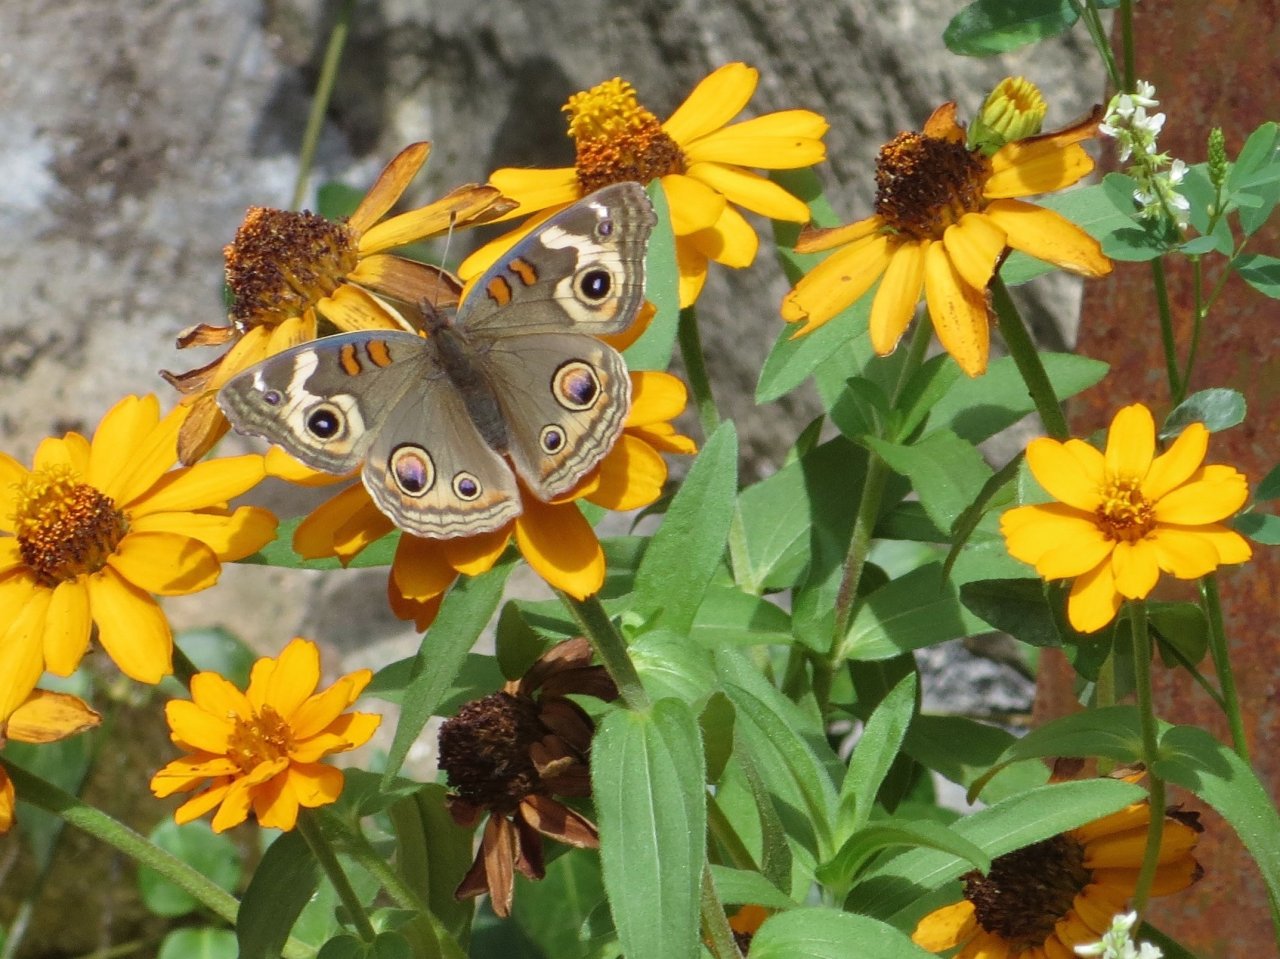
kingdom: Animalia
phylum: Arthropoda
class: Insecta
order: Lepidoptera
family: Nymphalidae
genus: Junonia
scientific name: Junonia coenia
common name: Common Buckeye
